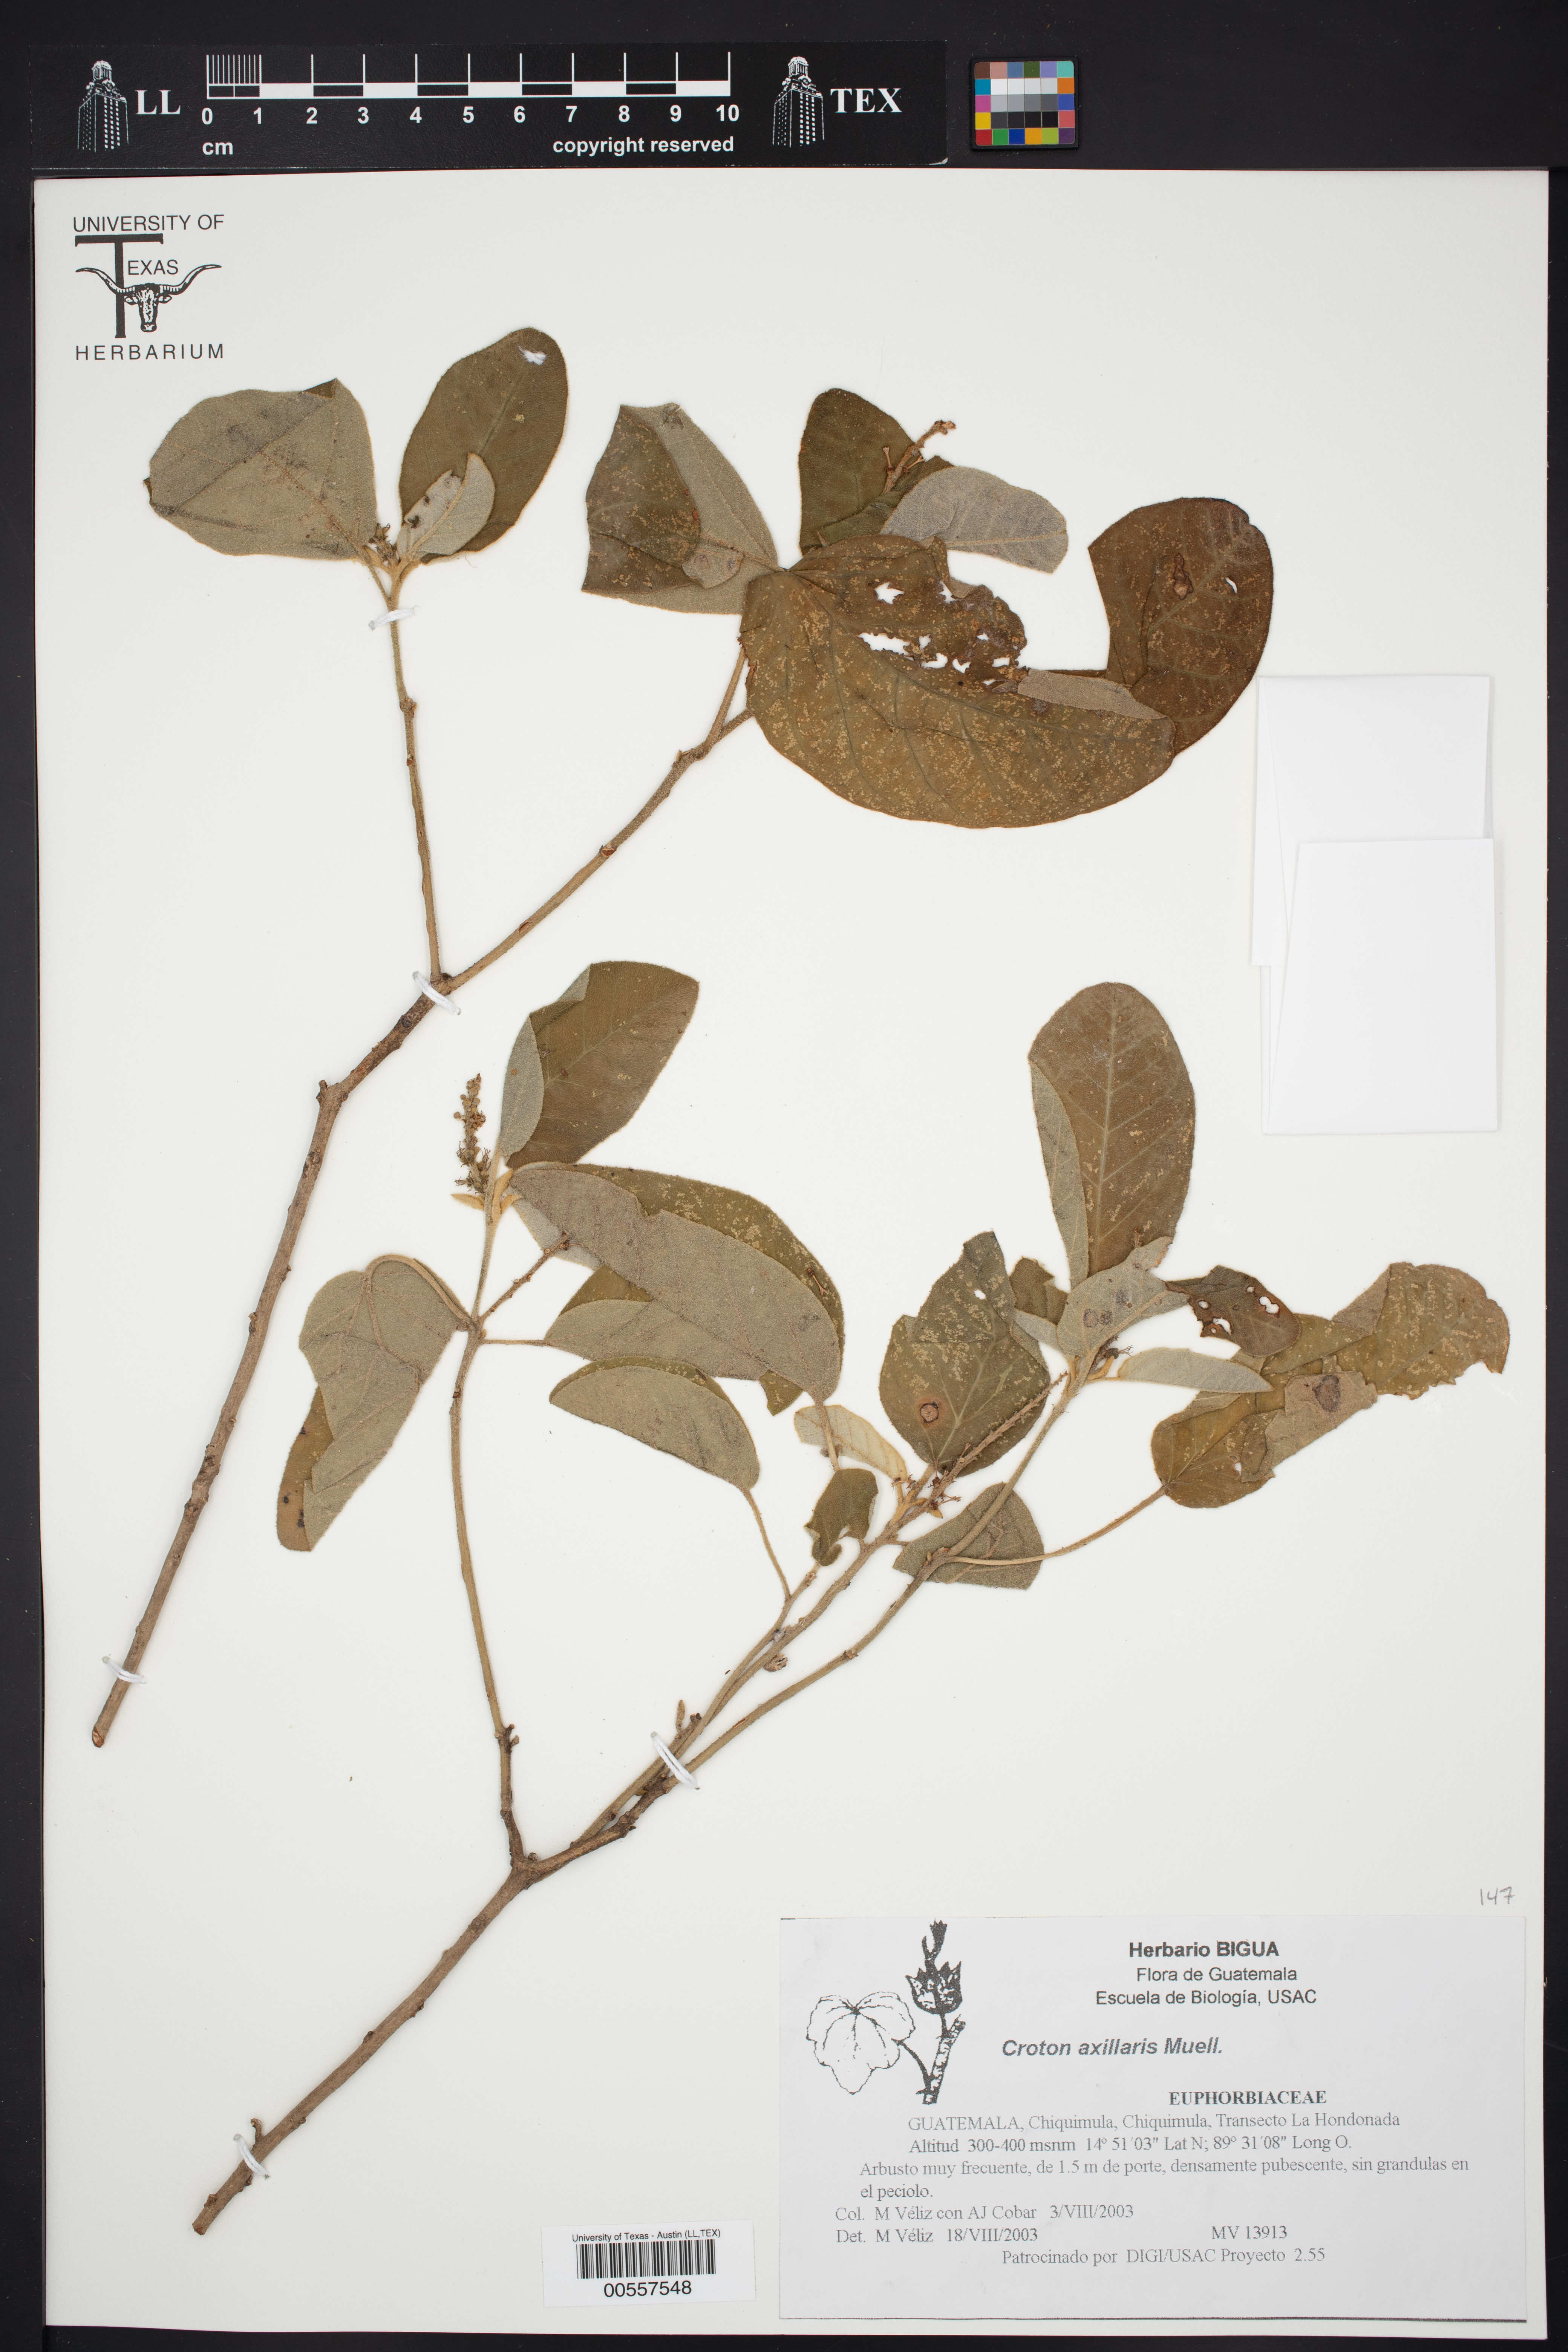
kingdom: Plantae
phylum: Tracheophyta
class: Magnoliopsida
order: Malpighiales
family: Euphorbiaceae
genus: Croton
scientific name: Croton axillaris
